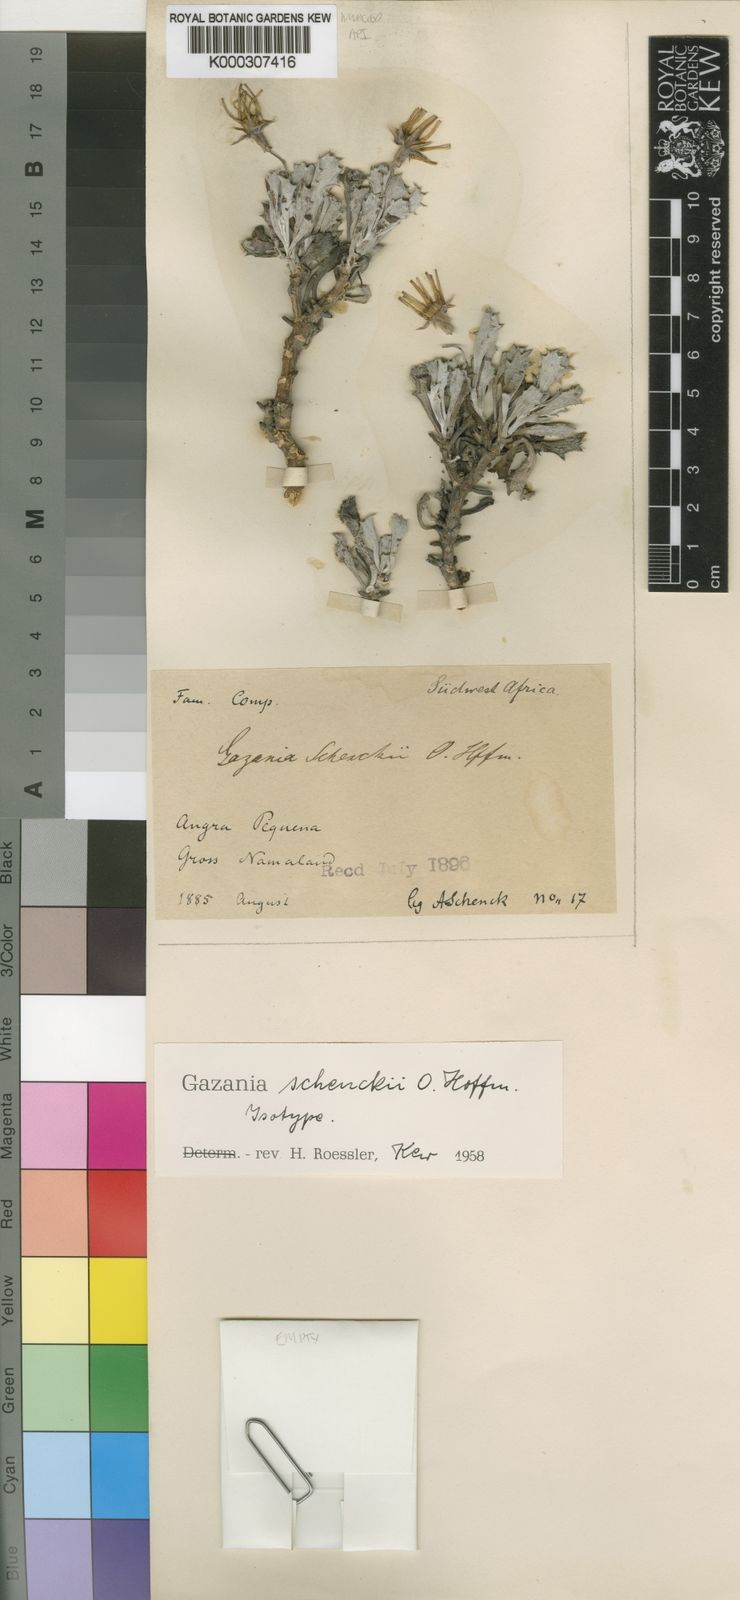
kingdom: Plantae
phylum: Tracheophyta
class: Magnoliopsida
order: Asterales
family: Asteraceae
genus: Gazania
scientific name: Gazania caespitosa
